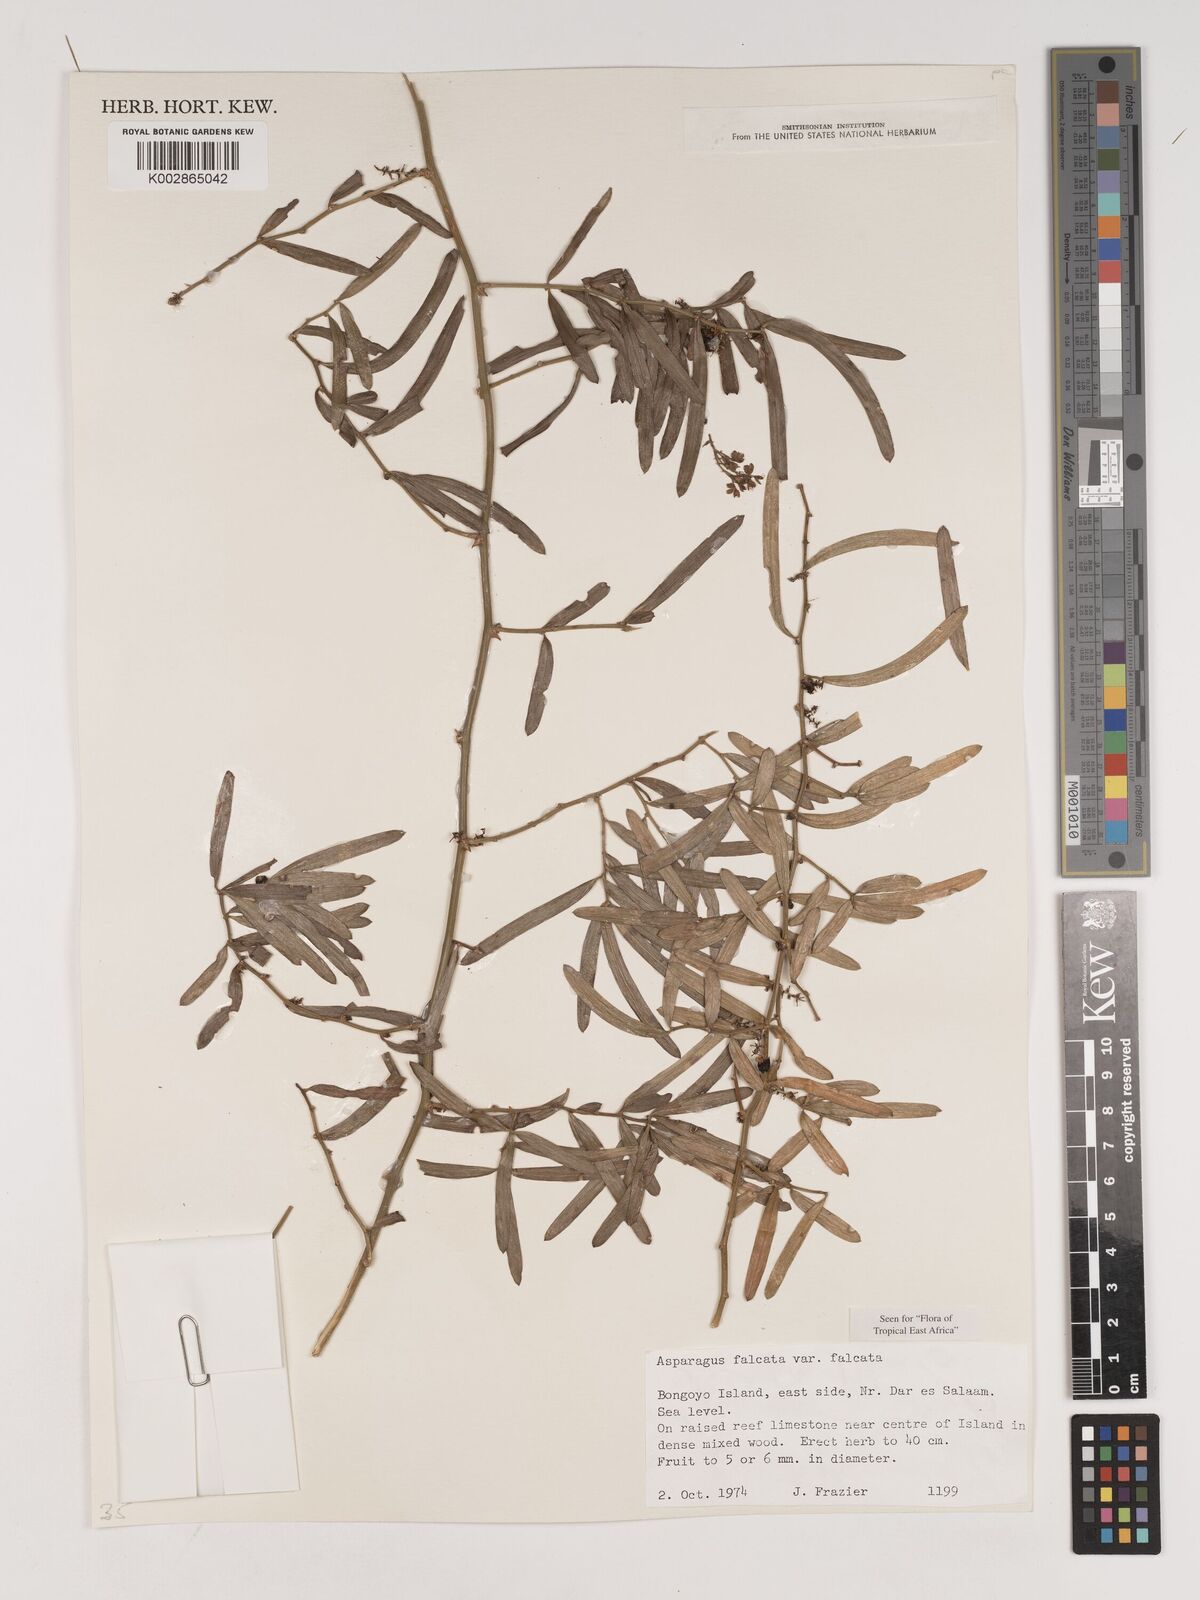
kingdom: Plantae
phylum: Tracheophyta
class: Liliopsida
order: Asparagales
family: Asparagaceae
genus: Asparagus
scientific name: Asparagus falcatus
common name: Asparagus
